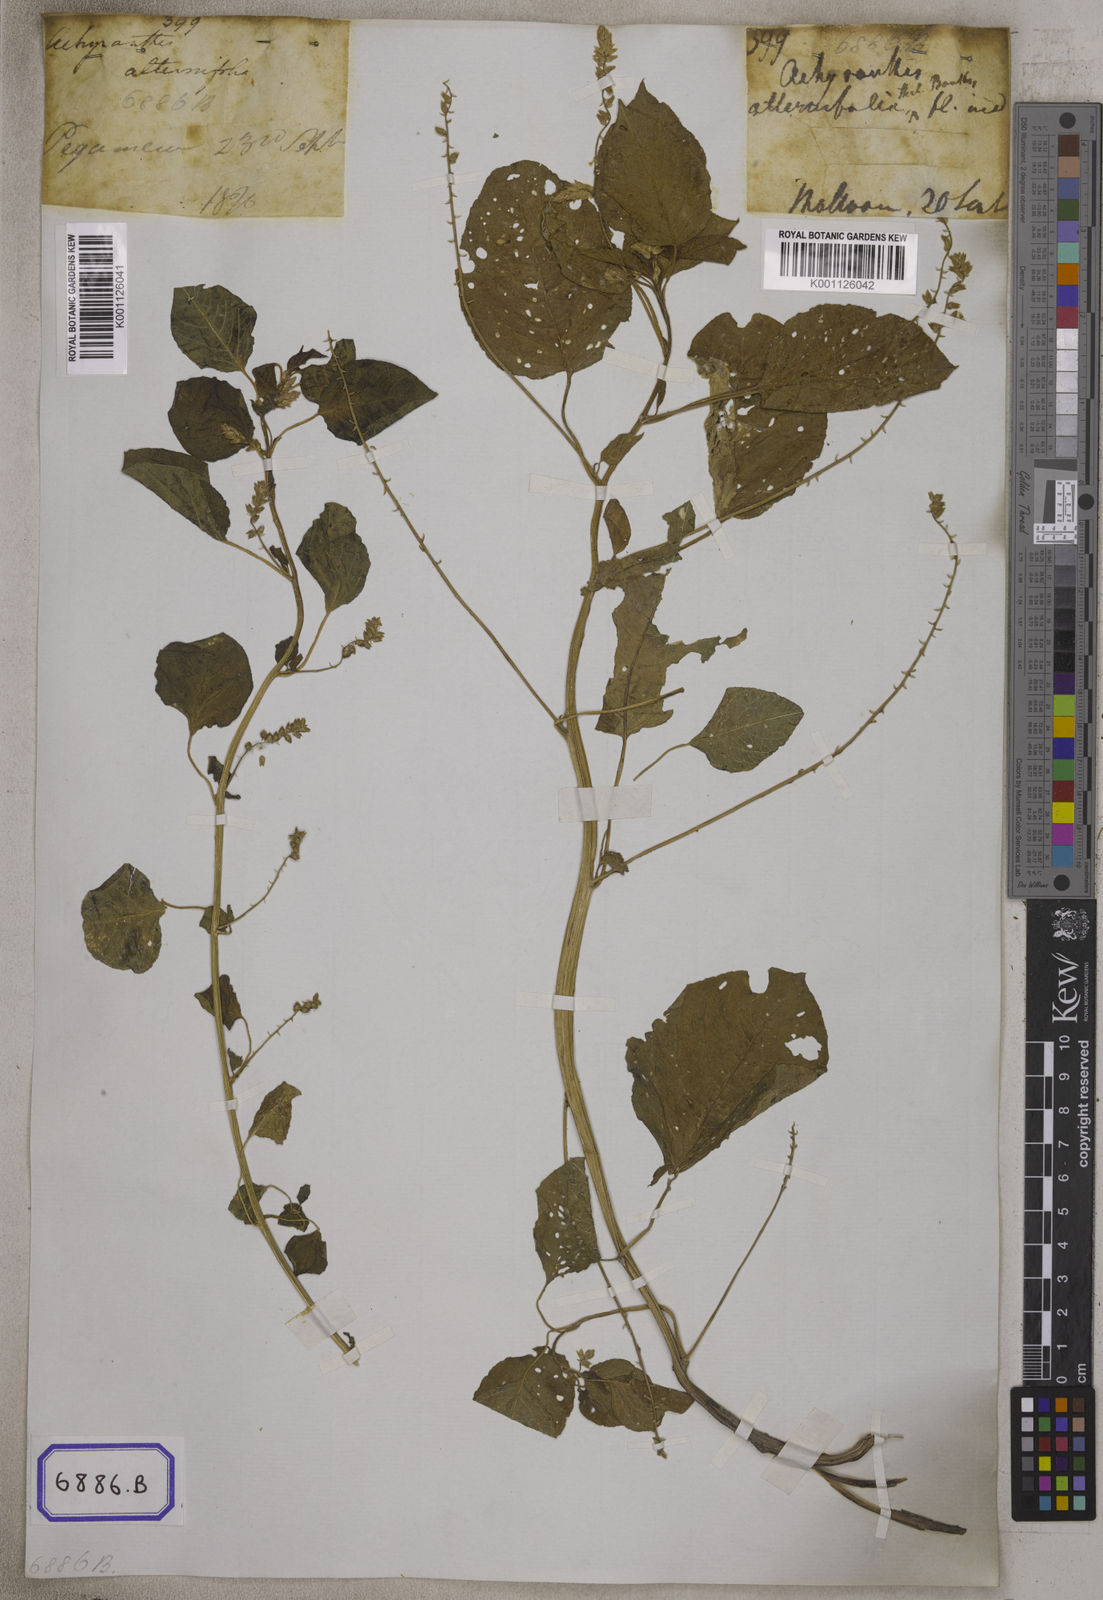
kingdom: Plantae
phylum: Tracheophyta
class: Magnoliopsida
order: Caryophyllales
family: Amaranthaceae
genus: Digera
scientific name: Digera muricata
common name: False amaranth
